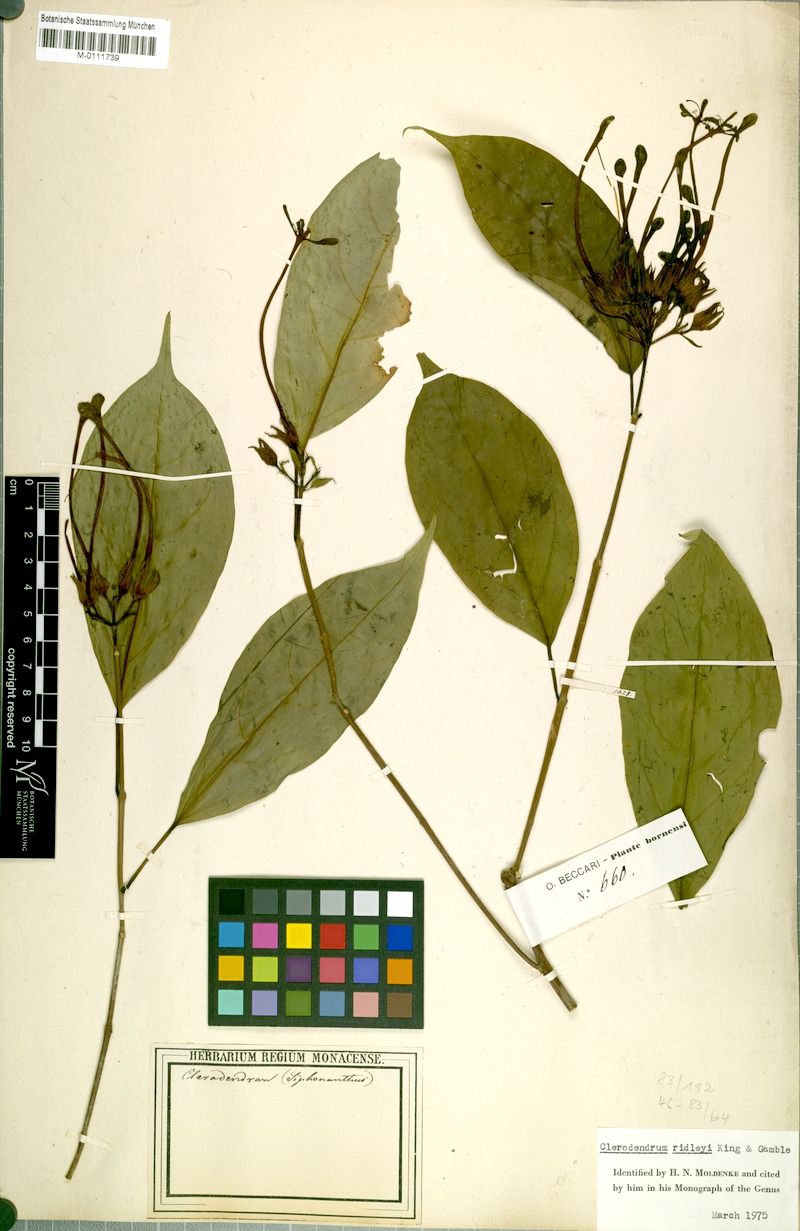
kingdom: Plantae
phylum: Tracheophyta
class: Magnoliopsida
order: Lamiales
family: Lamiaceae
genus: Clerodendrum
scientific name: Clerodendrum ridleyi
